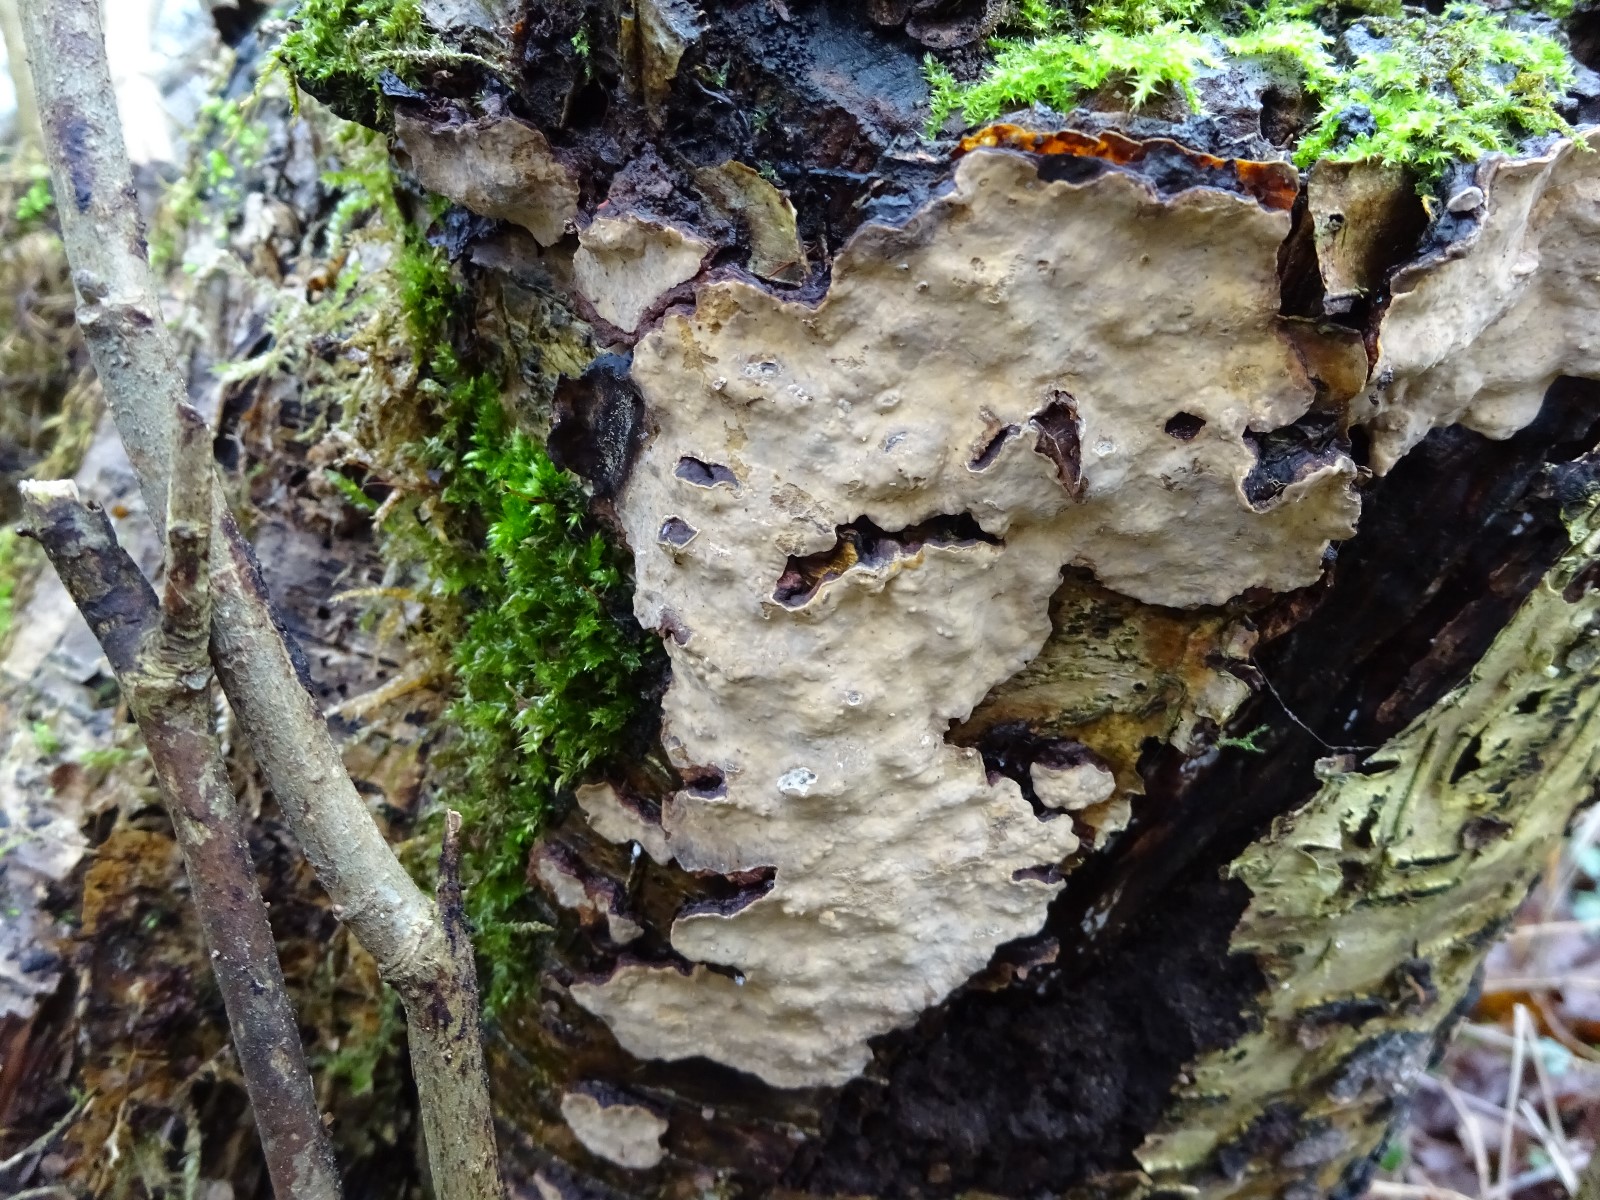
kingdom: Fungi
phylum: Basidiomycota
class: Agaricomycetes
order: Russulales
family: Stereaceae
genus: Stereum
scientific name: Stereum rugosum
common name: rynket lædersvamp
